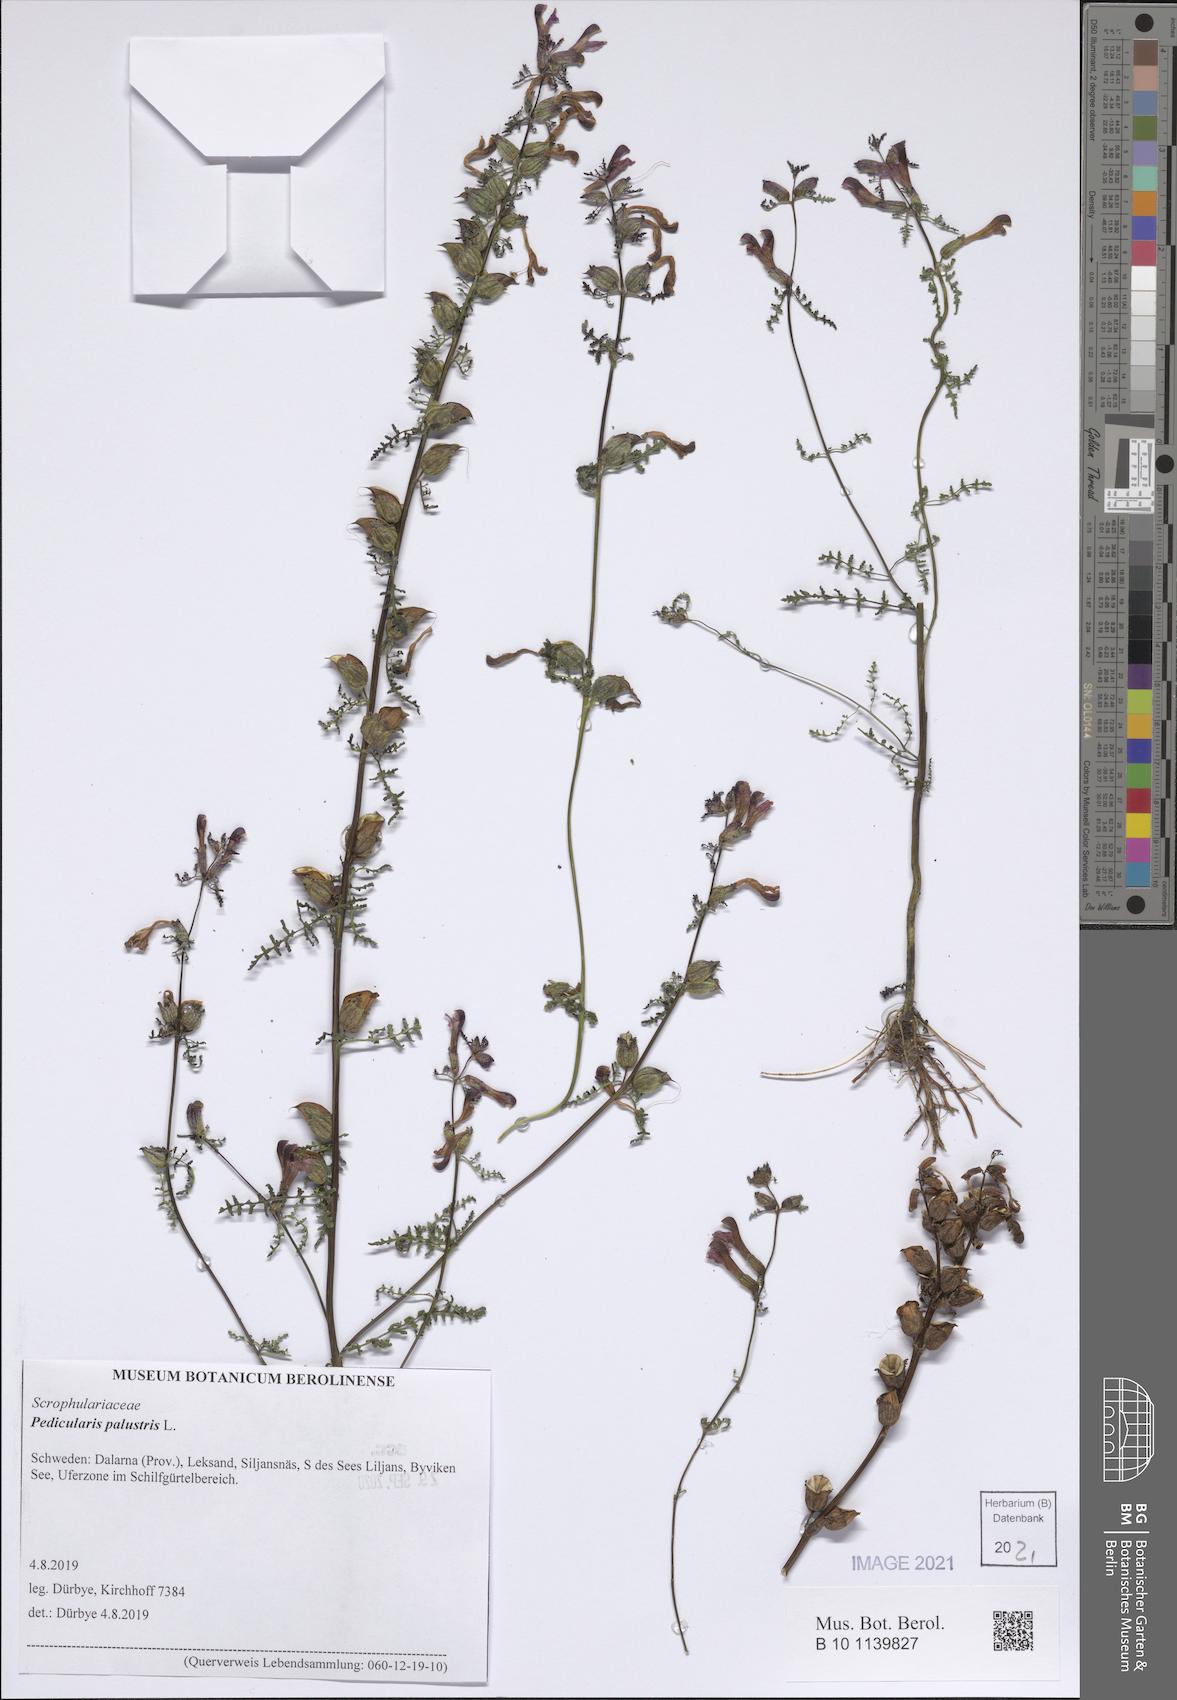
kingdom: Plantae
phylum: Tracheophyta
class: Magnoliopsida
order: Lamiales
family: Orobanchaceae
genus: Pedicularis
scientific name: Pedicularis palustris
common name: Marsh lousewort
